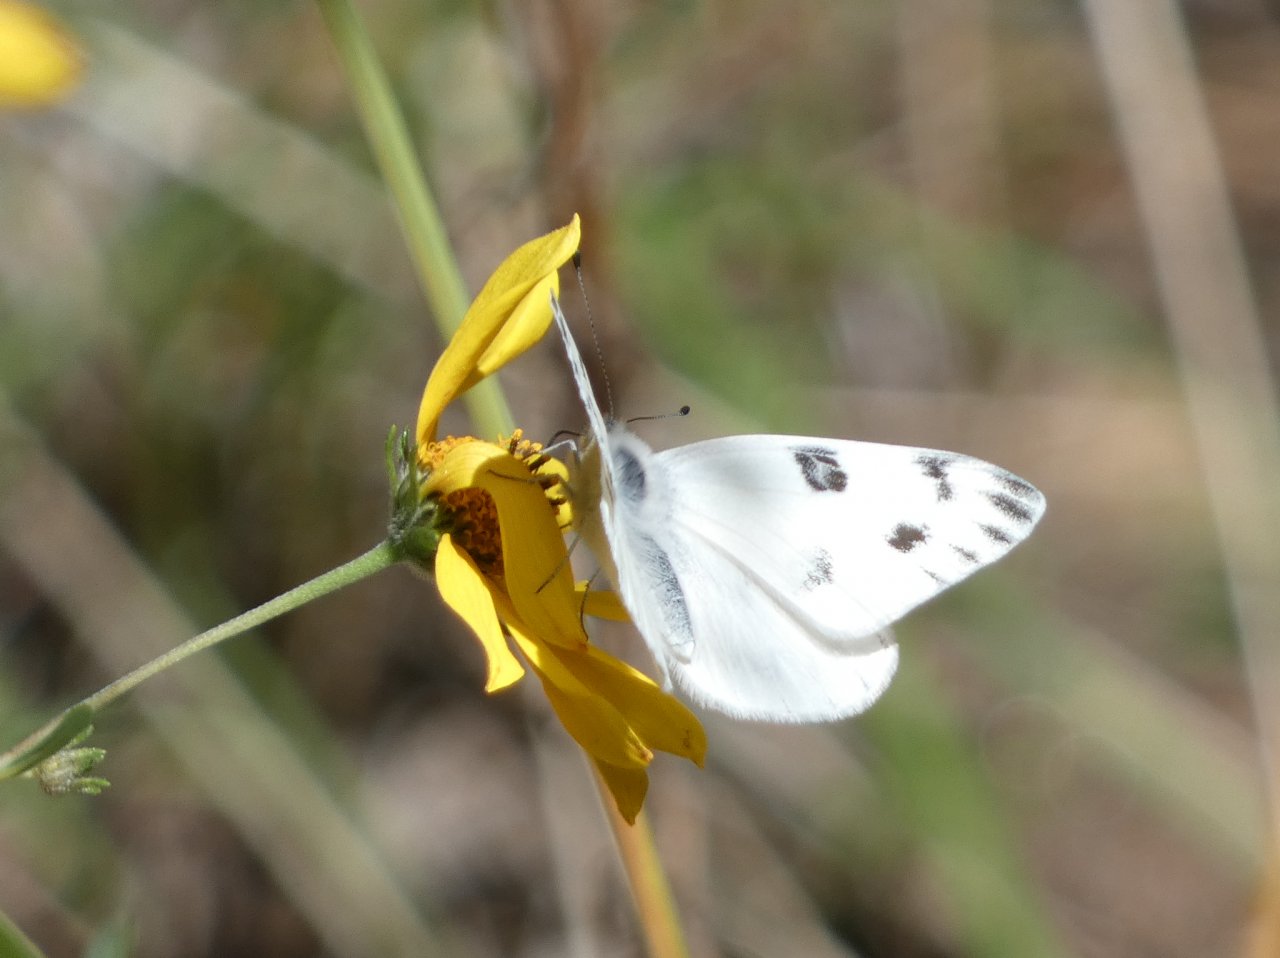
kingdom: Animalia
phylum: Arthropoda
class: Insecta
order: Lepidoptera
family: Pieridae
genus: Pontia
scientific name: Pontia protodice
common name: Checkered White
